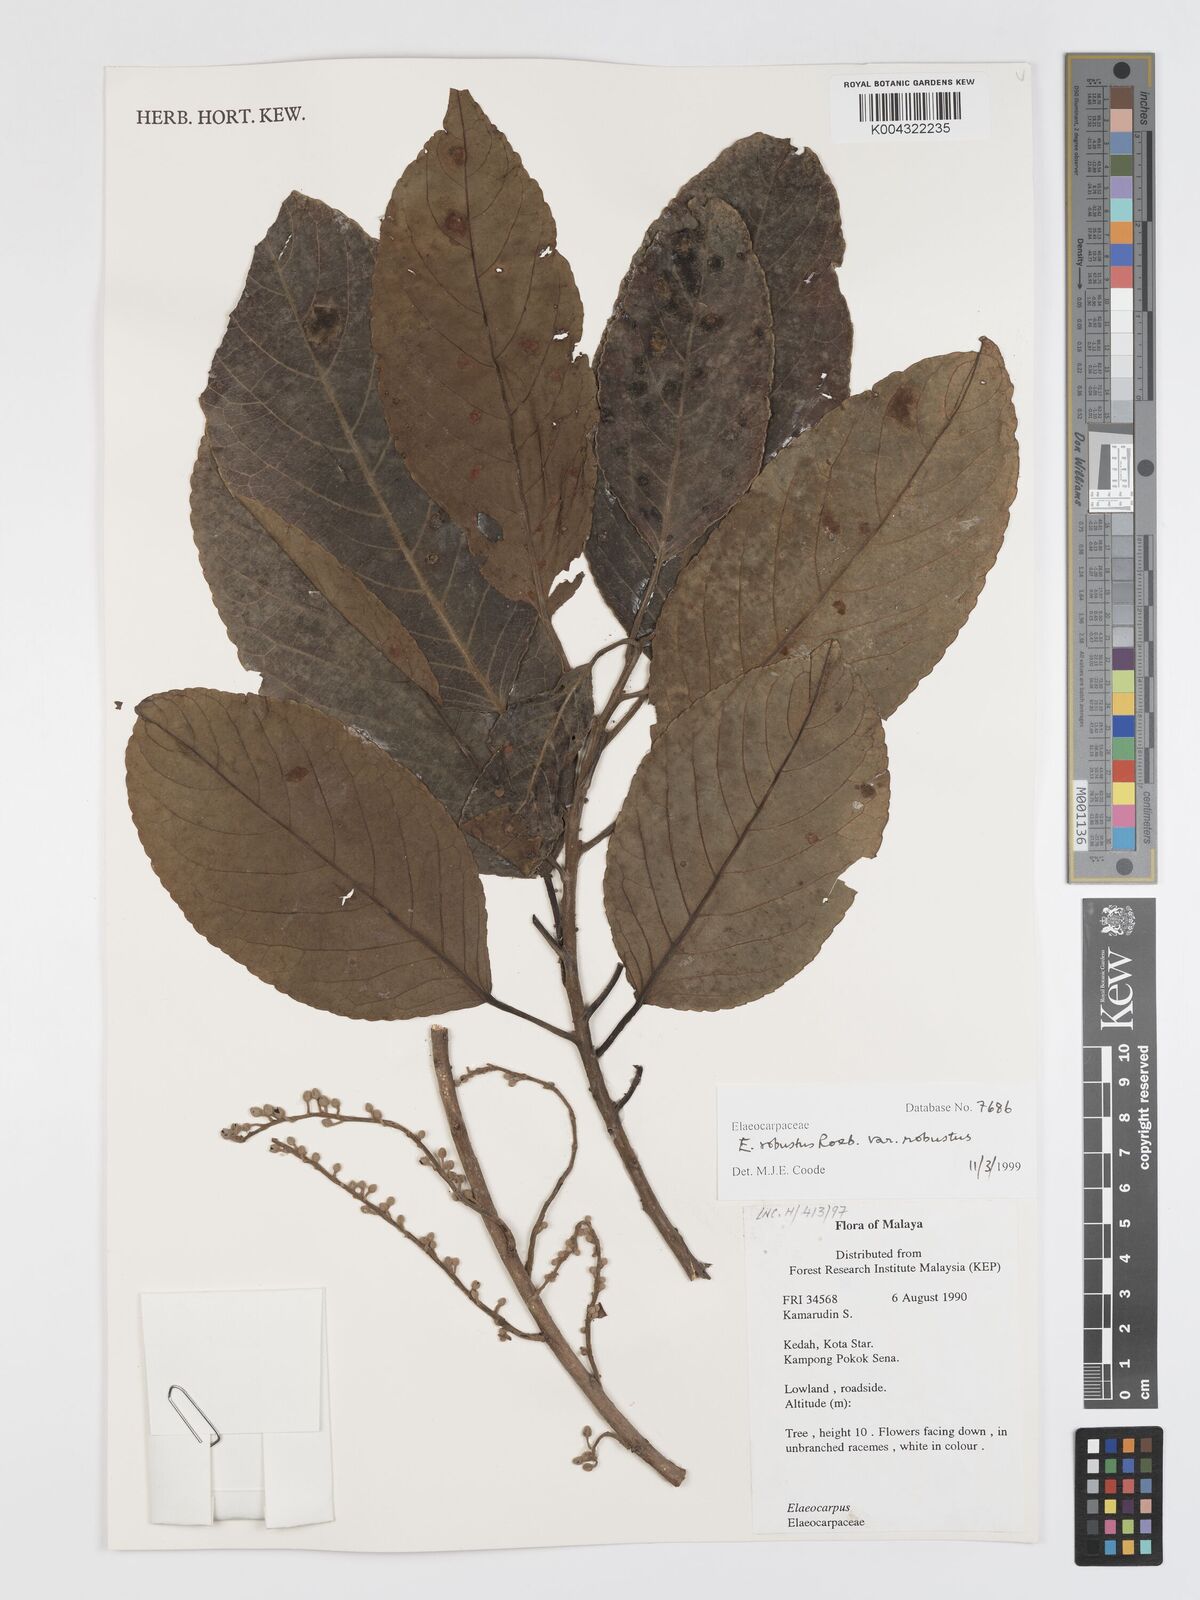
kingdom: Plantae
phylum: Tracheophyta
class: Magnoliopsida
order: Oxalidales
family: Elaeocarpaceae
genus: Elaeocarpus
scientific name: Elaeocarpus robustus
